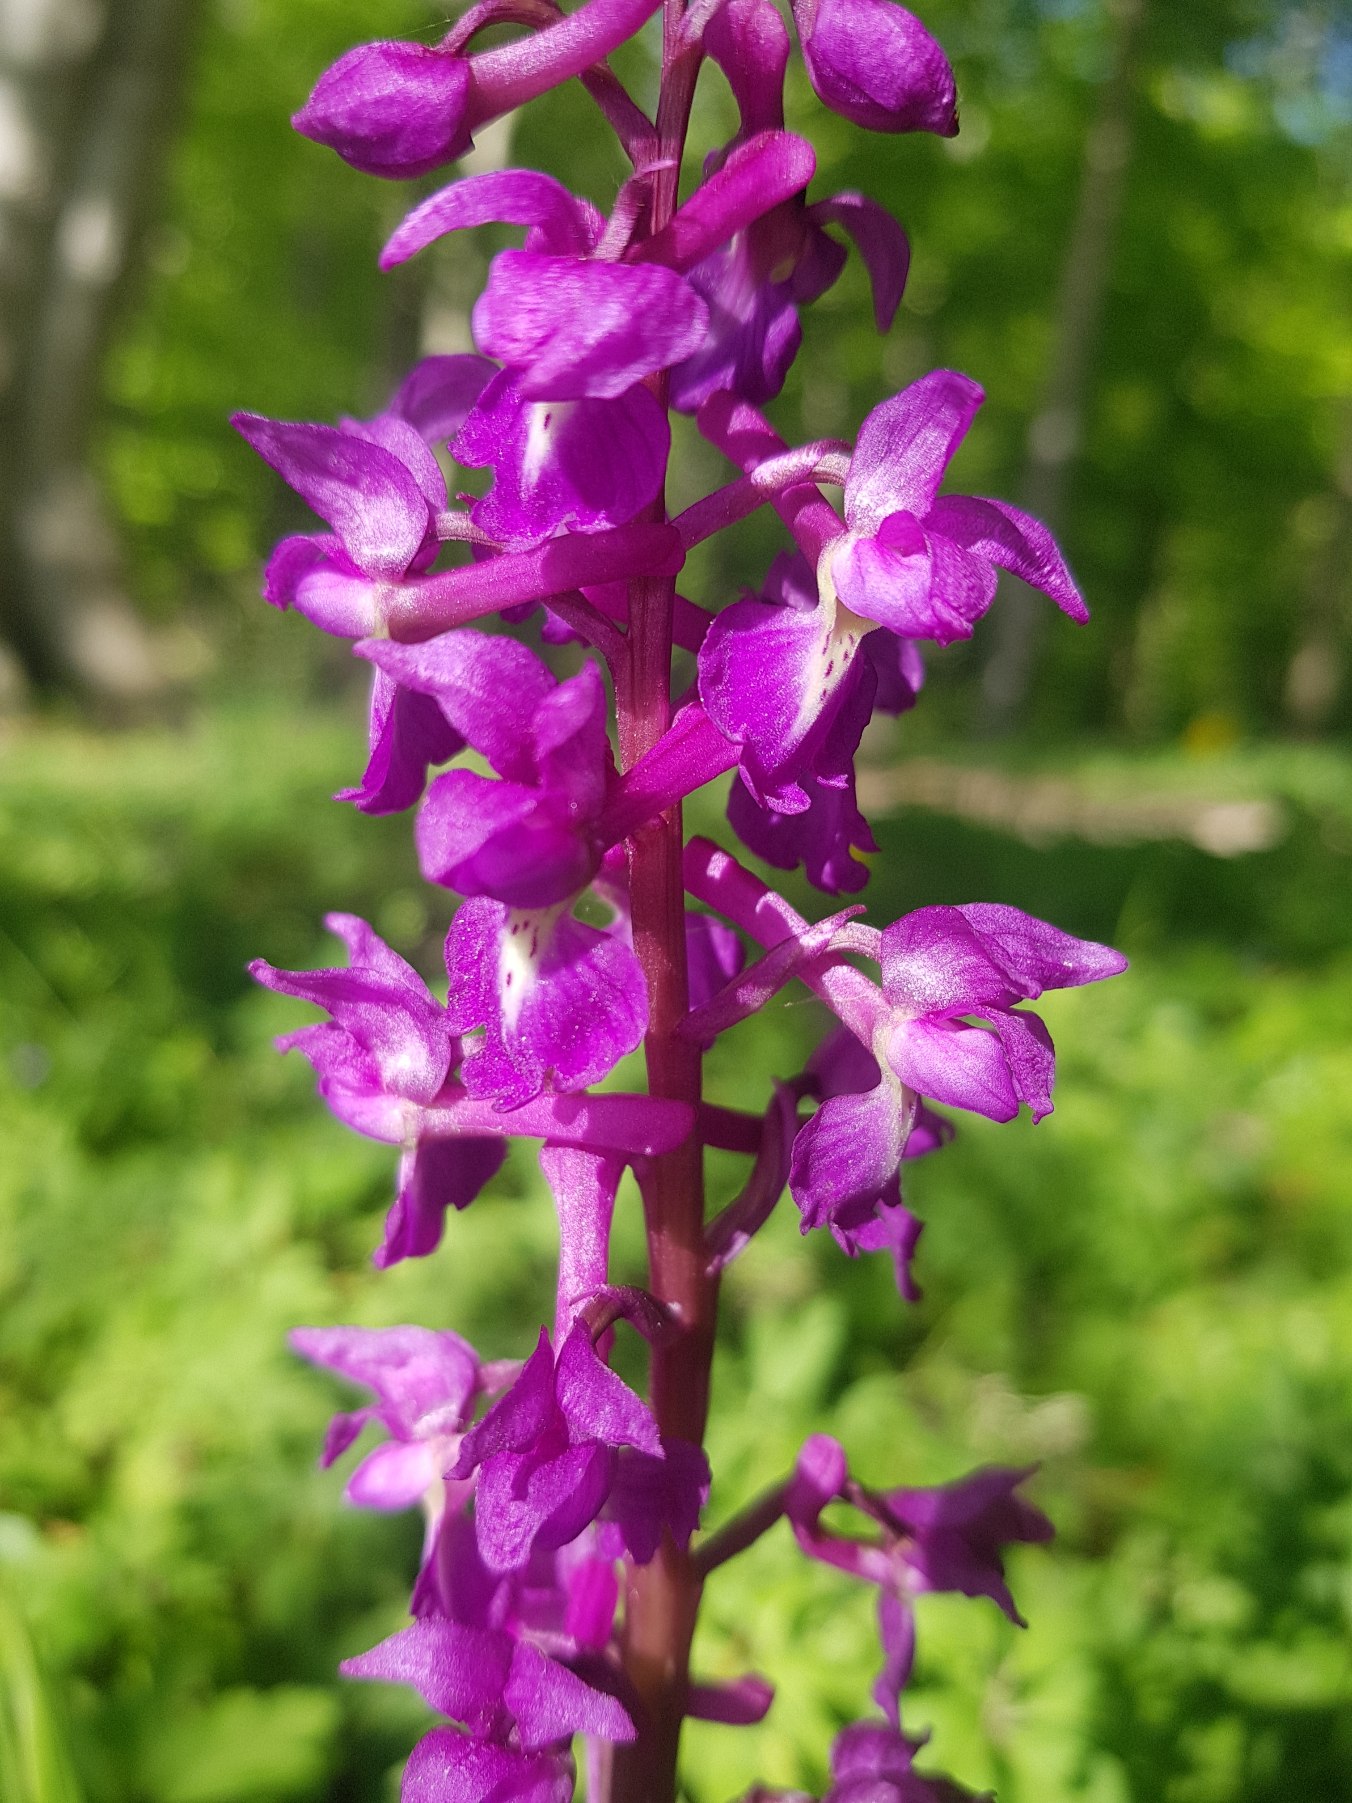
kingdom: Plantae
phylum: Tracheophyta
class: Liliopsida
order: Asparagales
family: Orchidaceae
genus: Orchis
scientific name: Orchis mascula
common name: Tyndakset gøgeurt
